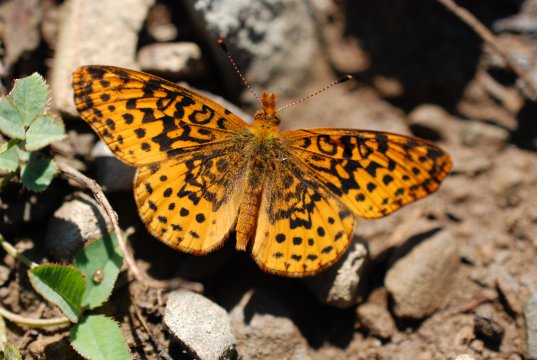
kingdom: Animalia
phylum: Arthropoda
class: Insecta
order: Lepidoptera
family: Nymphalidae
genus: Clossiana
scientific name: Clossiana toddi
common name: Meadow Fritillary
